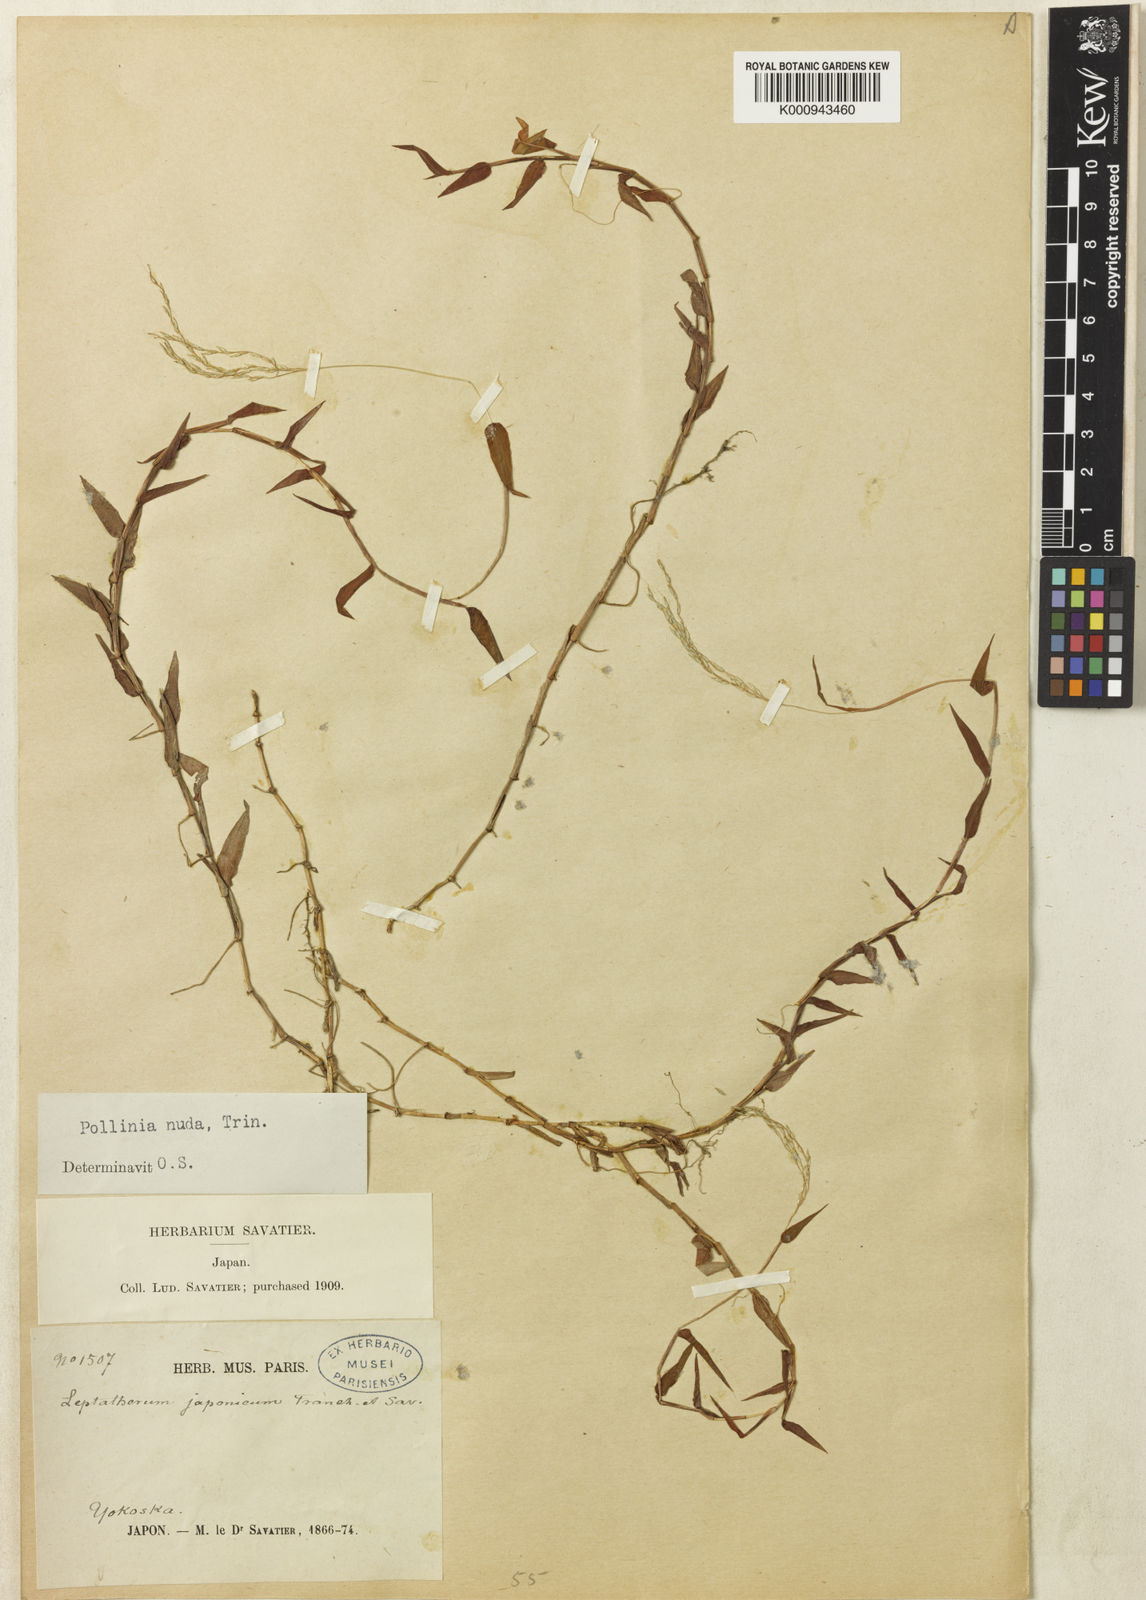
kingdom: Plantae
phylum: Tracheophyta
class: Liliopsida
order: Poales
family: Poaceae
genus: Microstegium
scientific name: Microstegium japonicum
